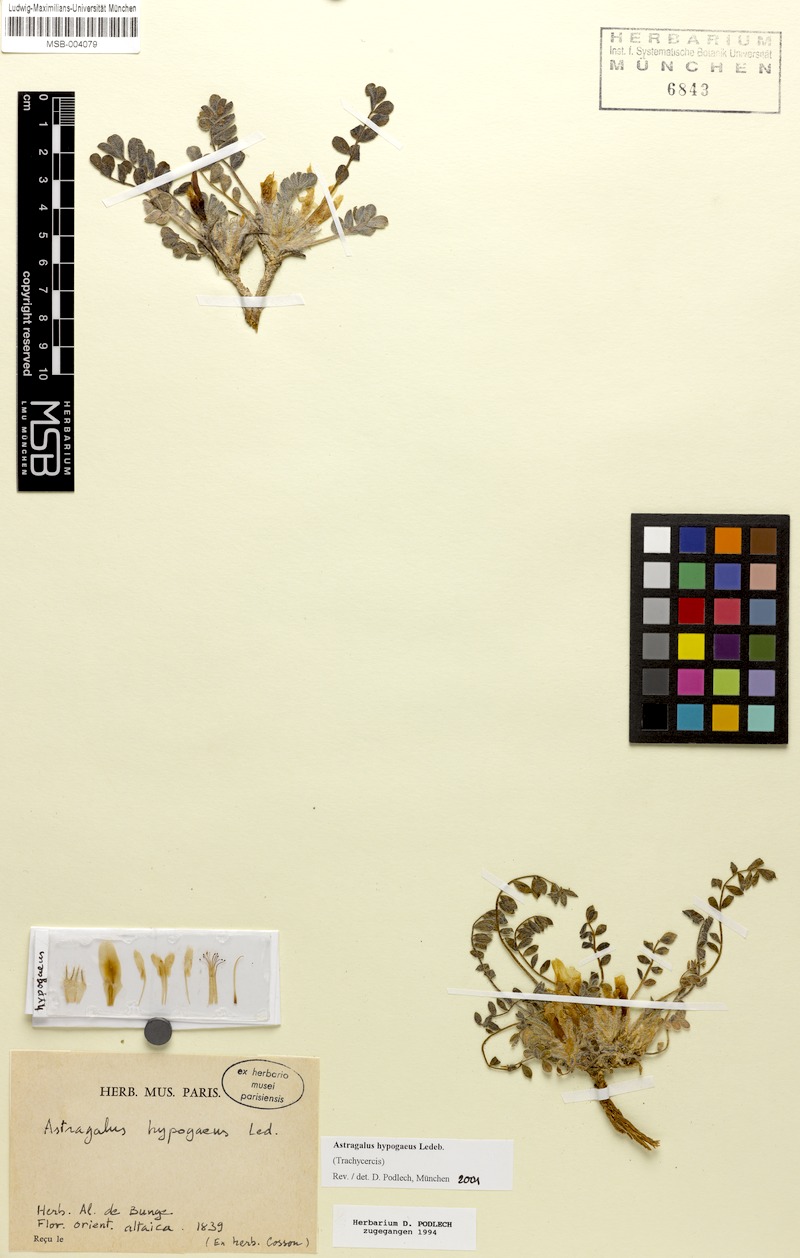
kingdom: Plantae
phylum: Tracheophyta
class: Magnoliopsida
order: Fabales
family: Fabaceae
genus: Astragalus
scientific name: Astragalus hypogaeus
